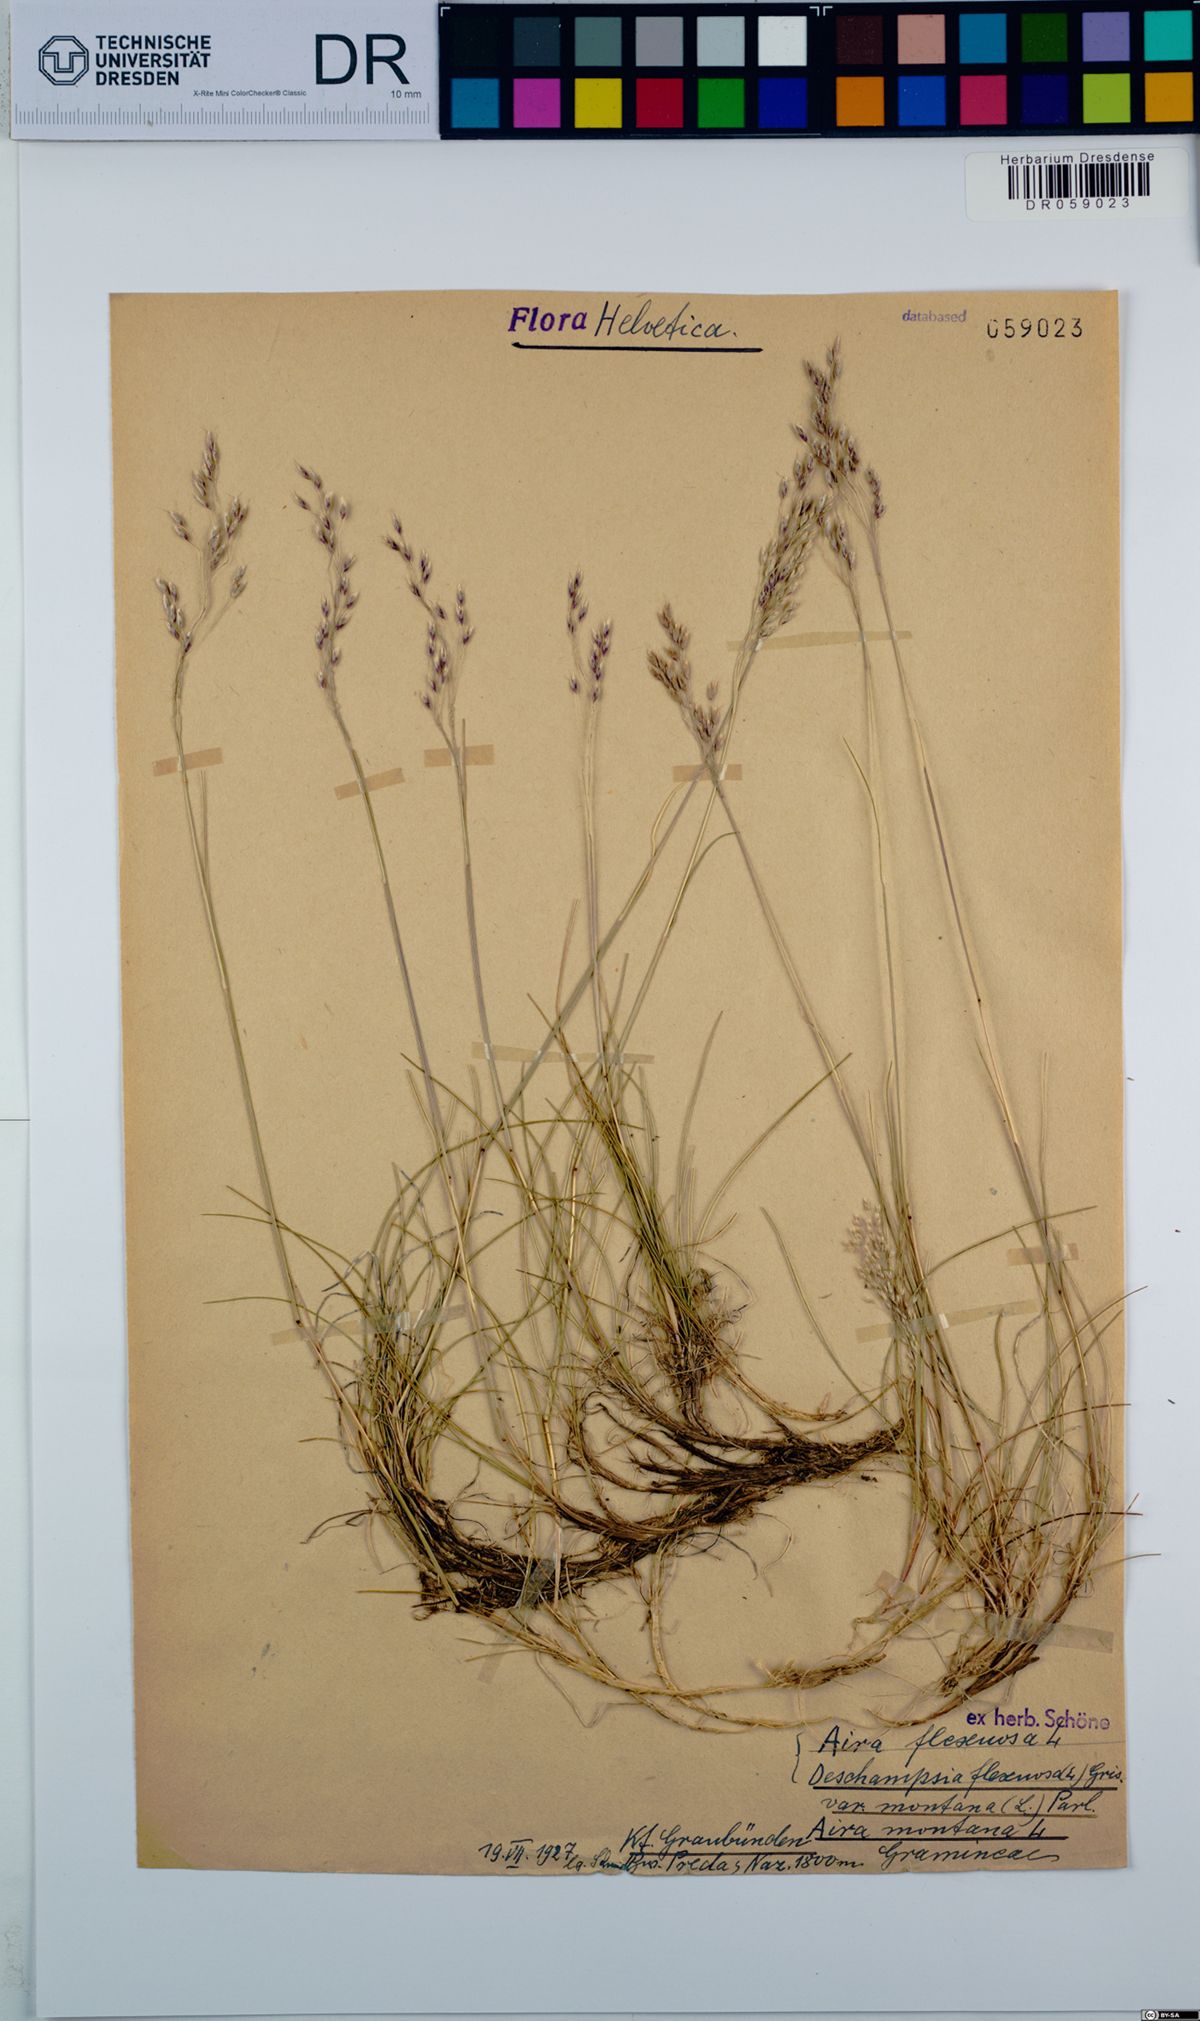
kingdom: Plantae
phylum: Tracheophyta
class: Liliopsida
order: Poales
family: Poaceae
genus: Avenella
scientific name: Avenella flexuosa
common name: Wavy hairgrass
